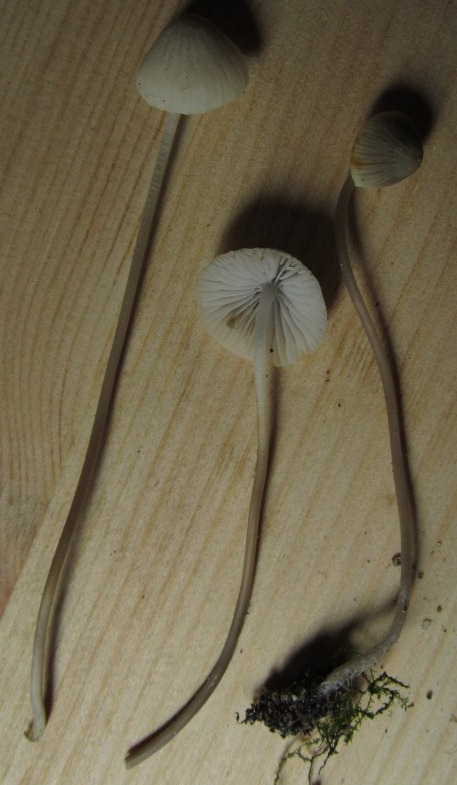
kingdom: Fungi
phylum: Basidiomycota
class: Agaricomycetes
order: Agaricales
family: Mycenaceae
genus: Mycena
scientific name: Mycena filopes
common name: jod-huesvamp
